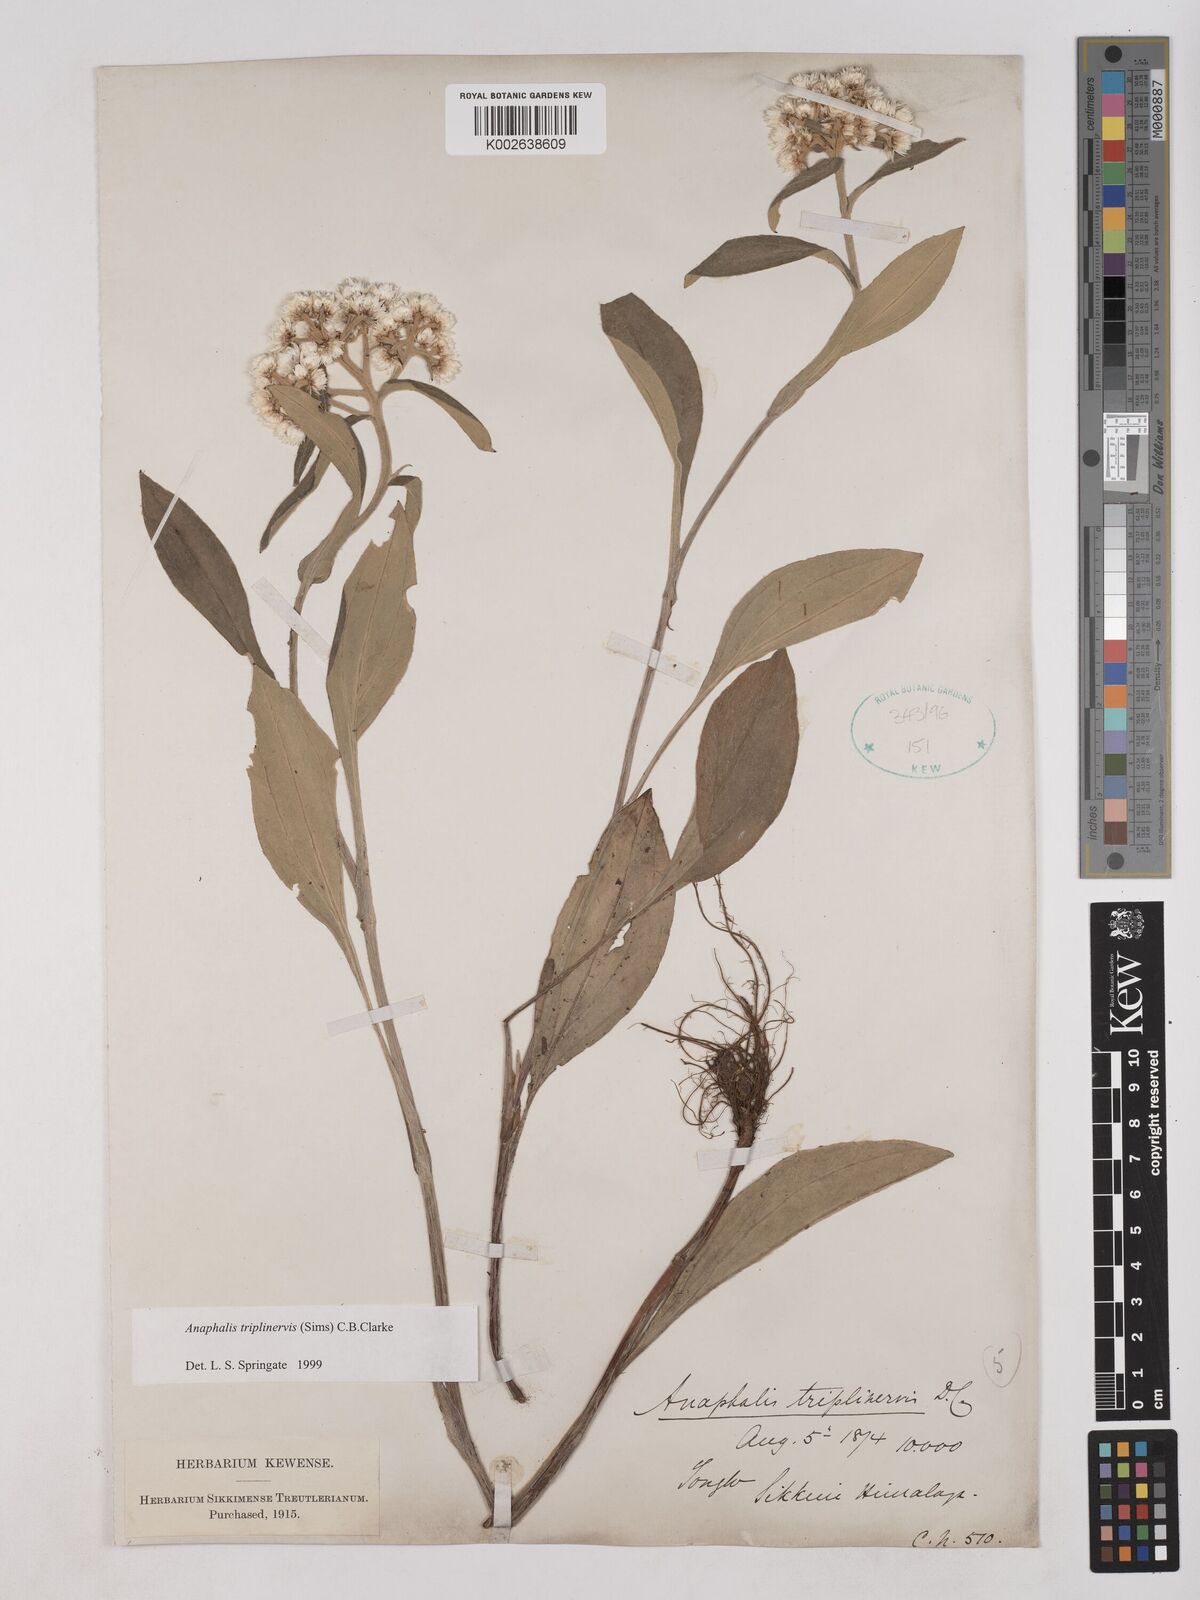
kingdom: Plantae
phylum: Tracheophyta
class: Magnoliopsida
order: Asterales
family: Asteraceae
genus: Anaphalis
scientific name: Anaphalis triplinervis
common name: Pearly everlasting
